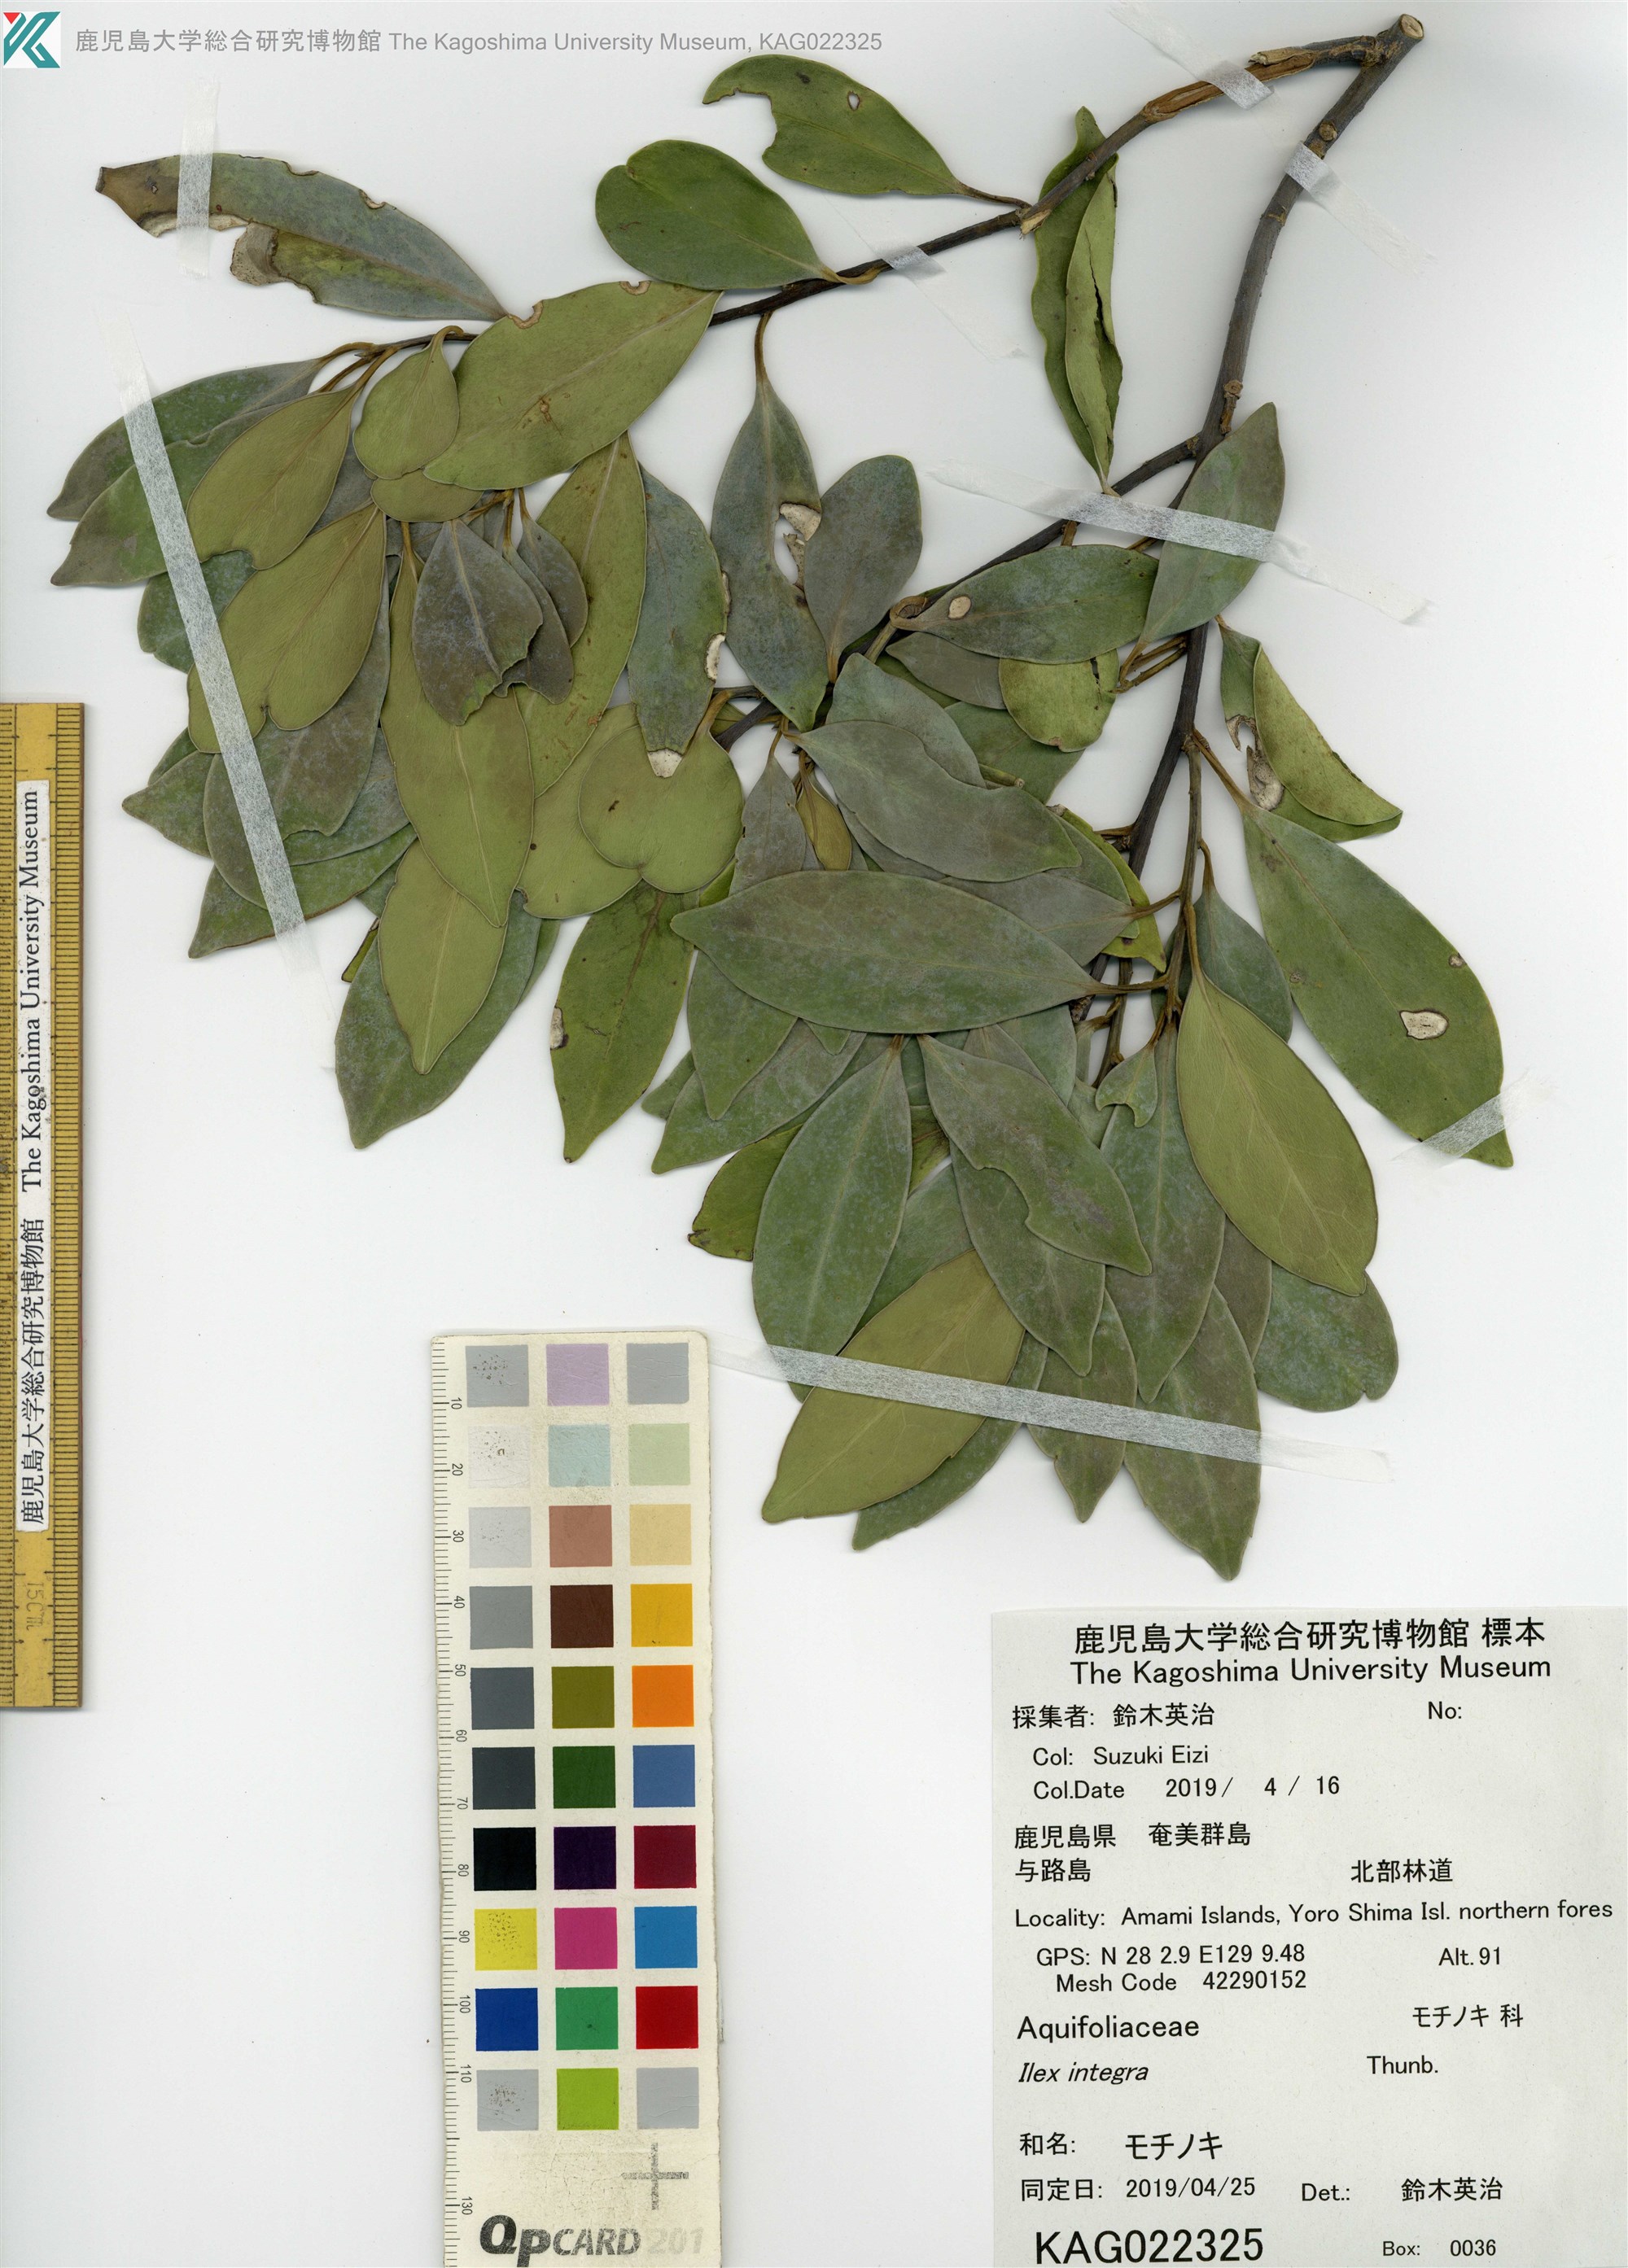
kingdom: Plantae
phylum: Tracheophyta
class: Magnoliopsida
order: Aquifoliales
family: Aquifoliaceae
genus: Ilex
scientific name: Ilex integra
